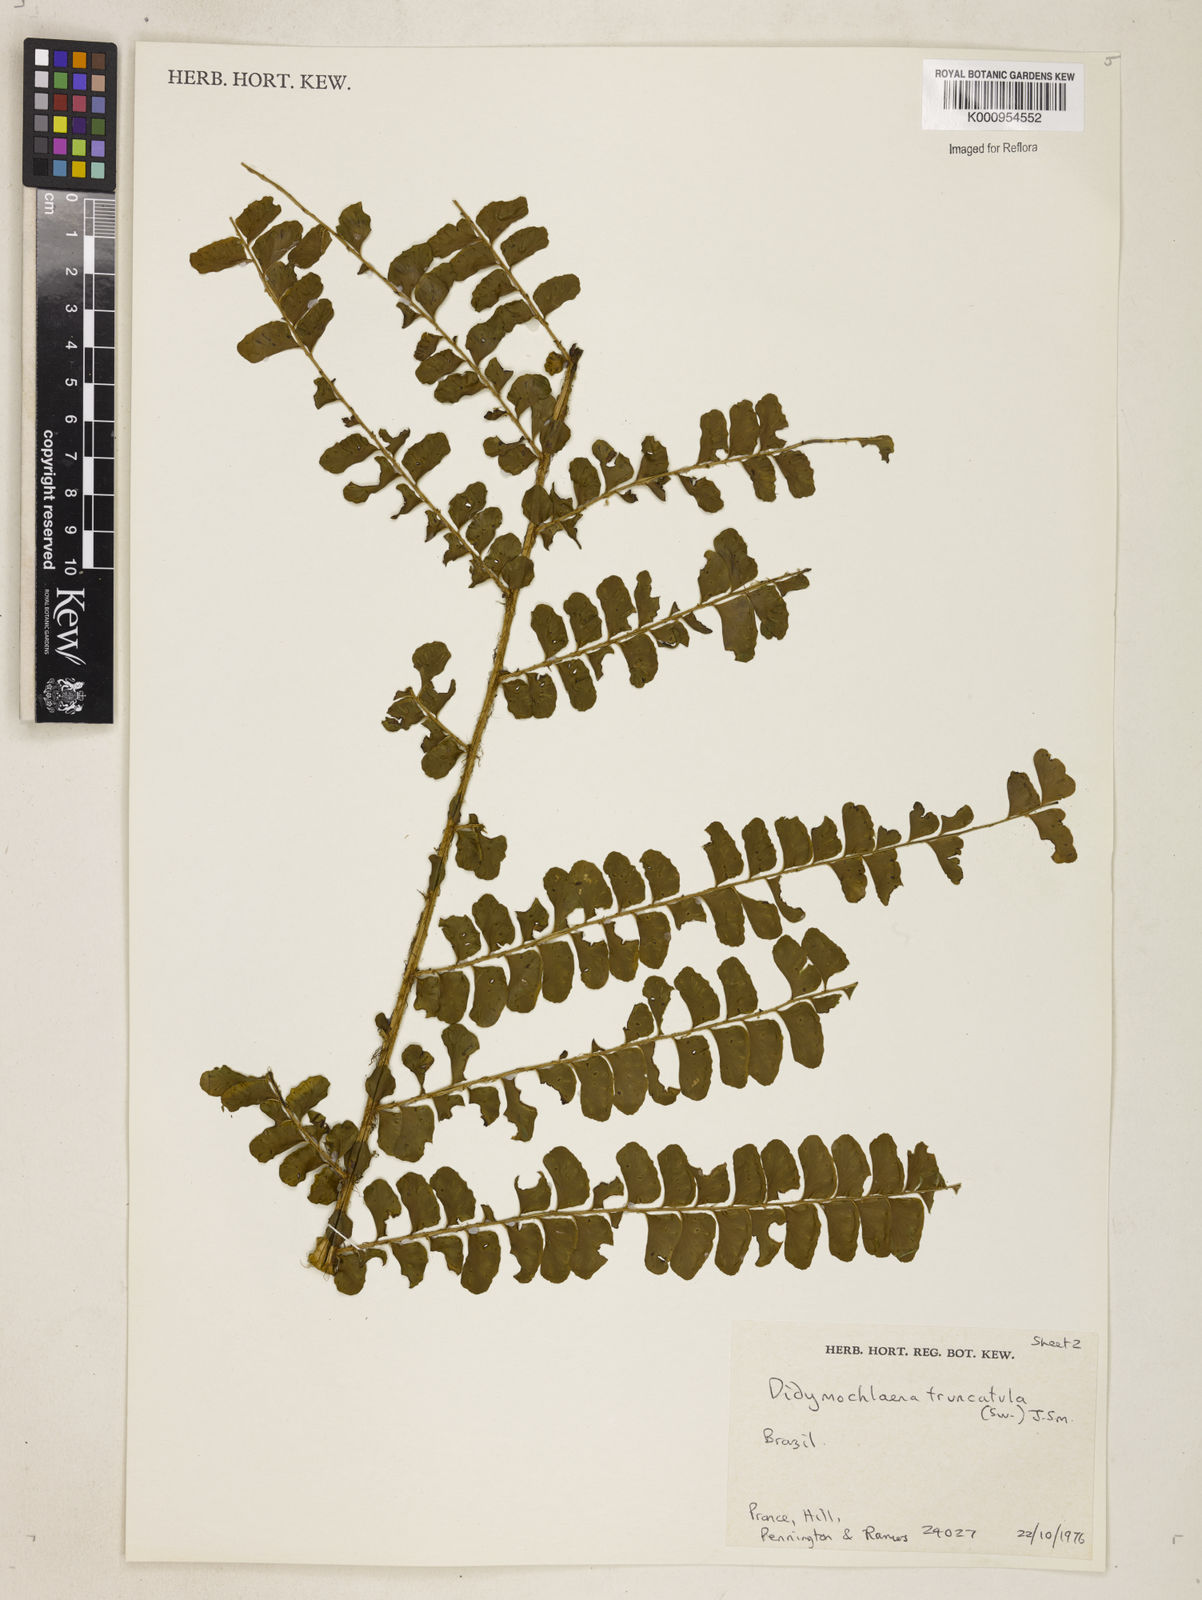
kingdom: Plantae
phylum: Tracheophyta
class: Polypodiopsida
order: Polypodiales
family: Didymochlaenaceae
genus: Didymochlaena
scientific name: Didymochlaena truncatula
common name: Mahogany fern
